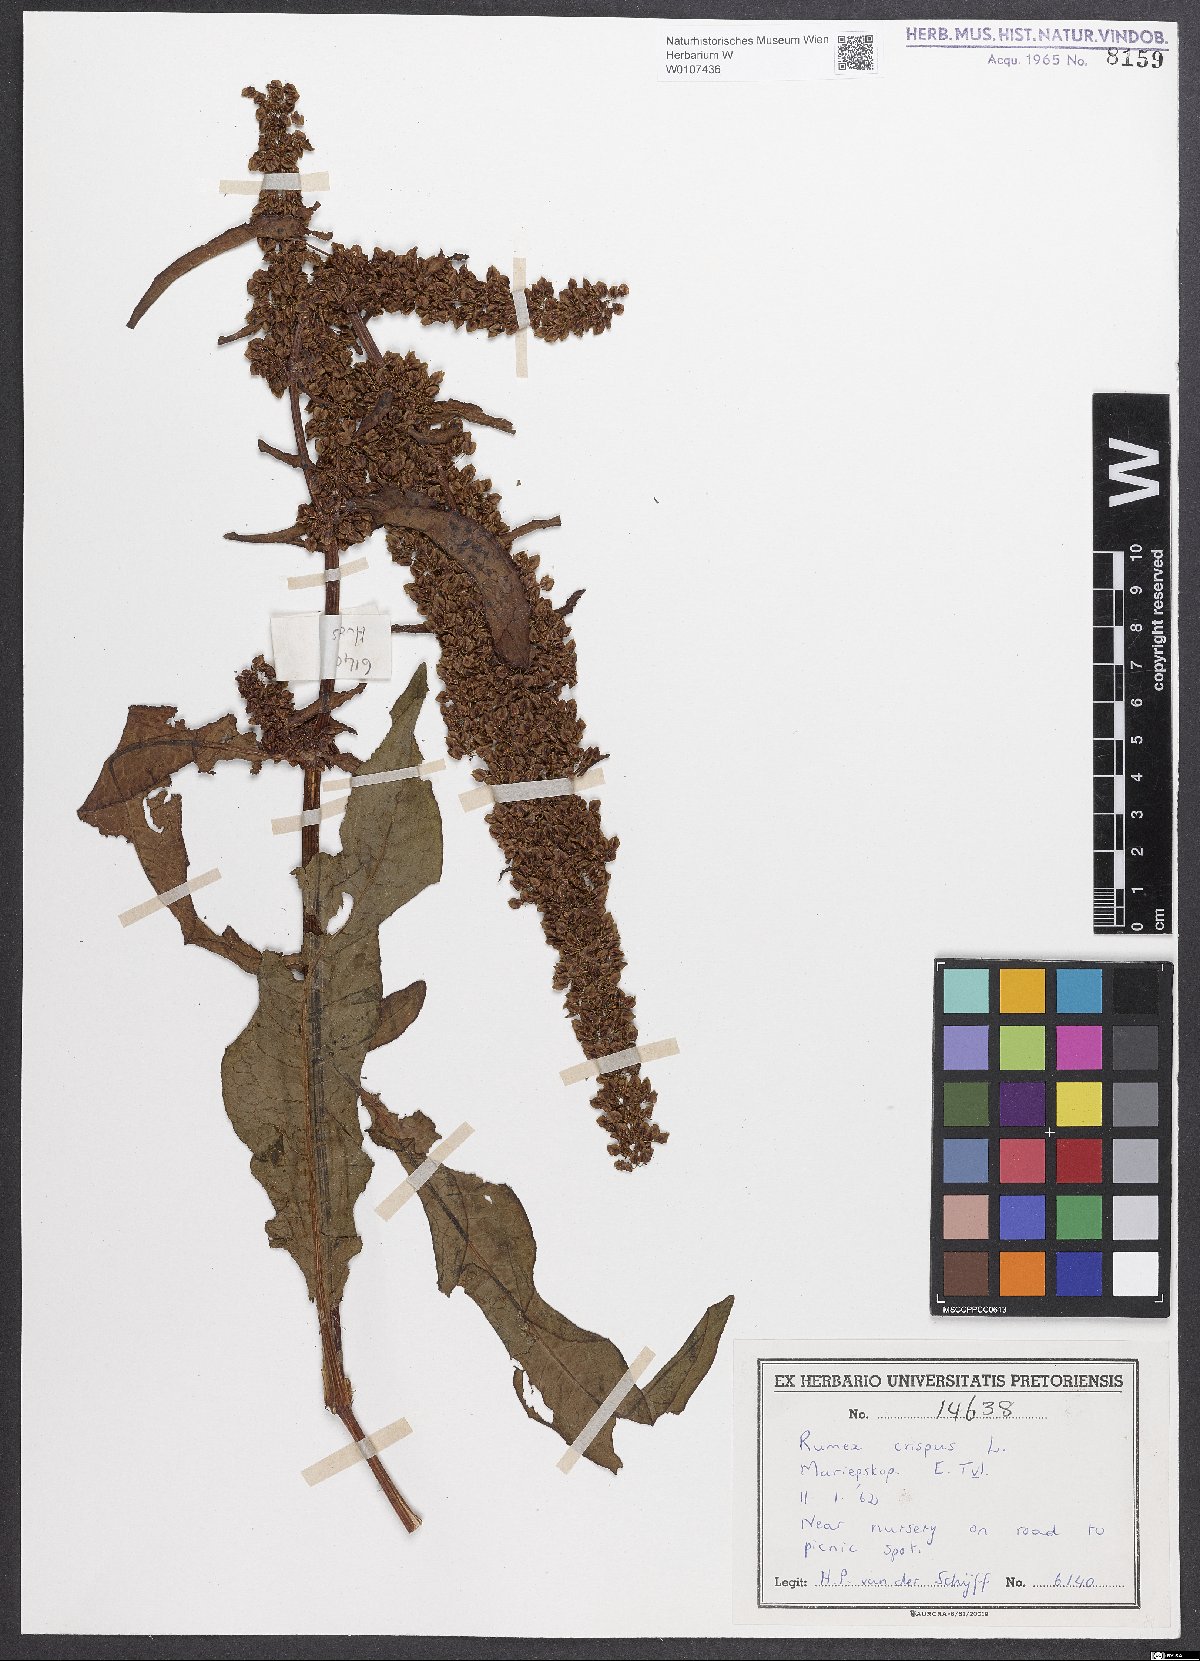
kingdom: Plantae
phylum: Tracheophyta
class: Magnoliopsida
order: Caryophyllales
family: Polygonaceae
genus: Rumex
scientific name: Rumex crispus
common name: Curled dock
